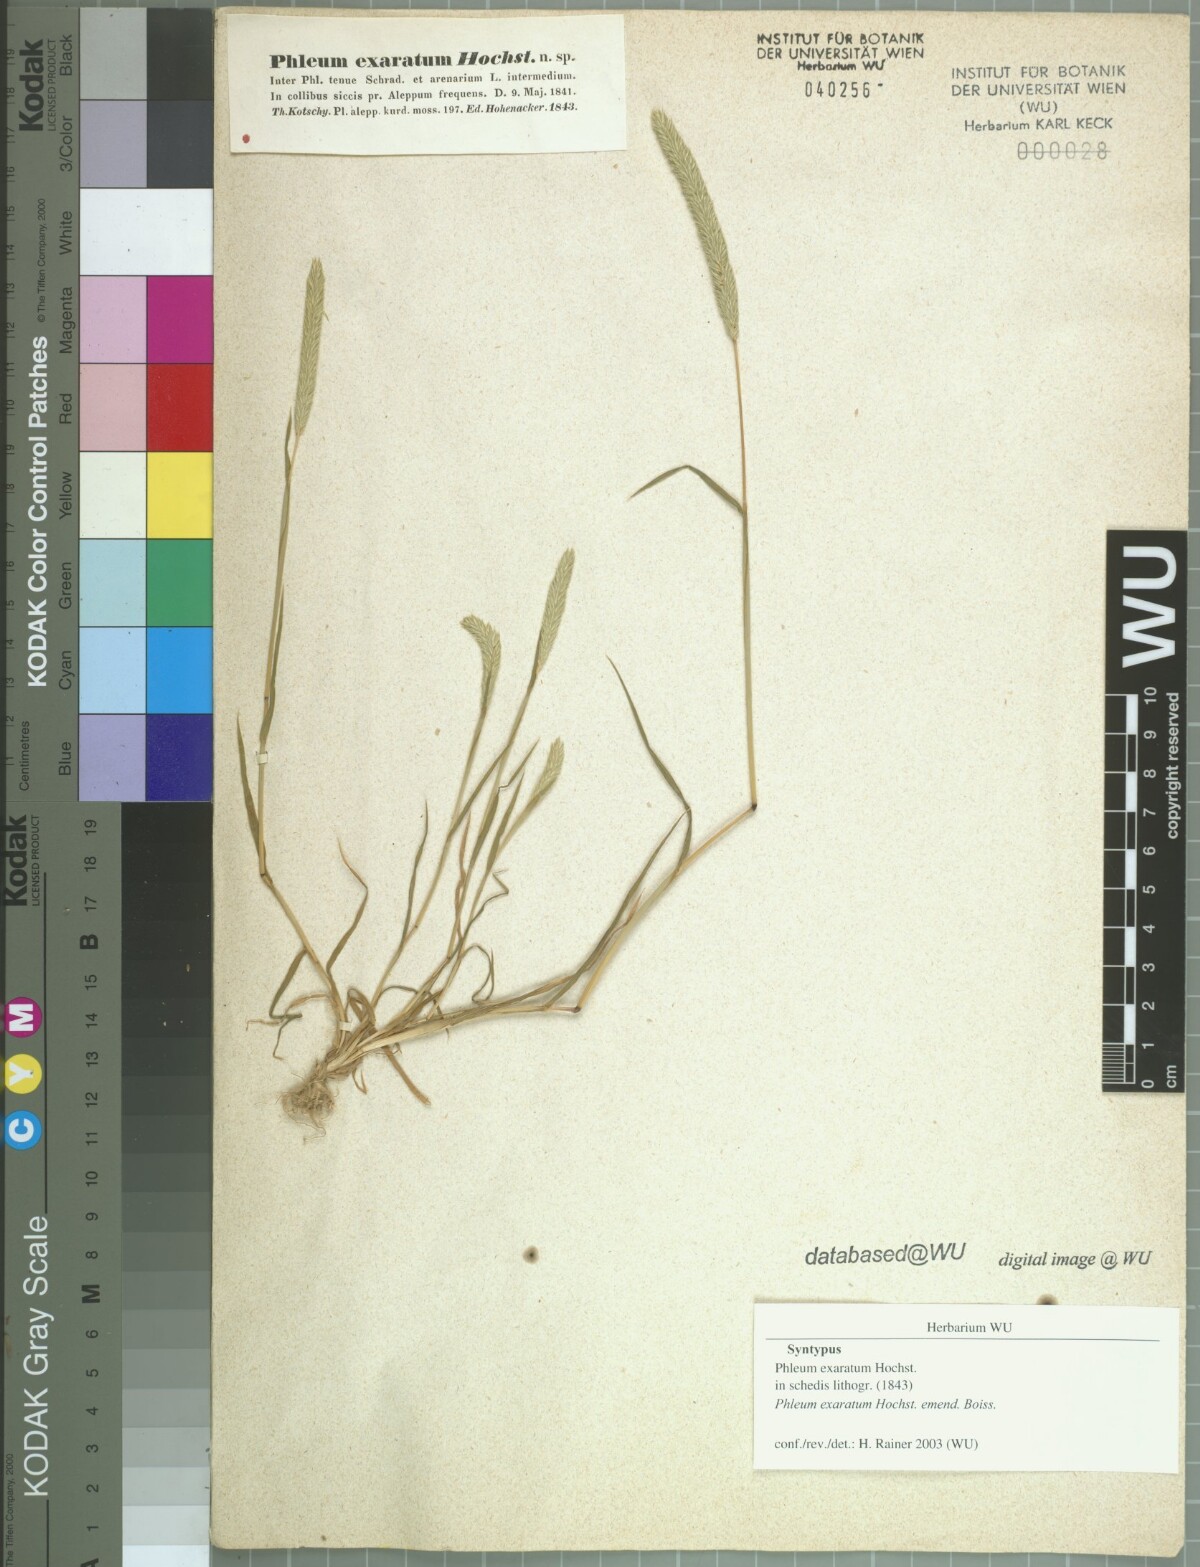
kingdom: Plantae
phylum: Tracheophyta
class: Liliopsida
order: Poales
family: Poaceae
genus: Phleum
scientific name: Phleum boissieri
